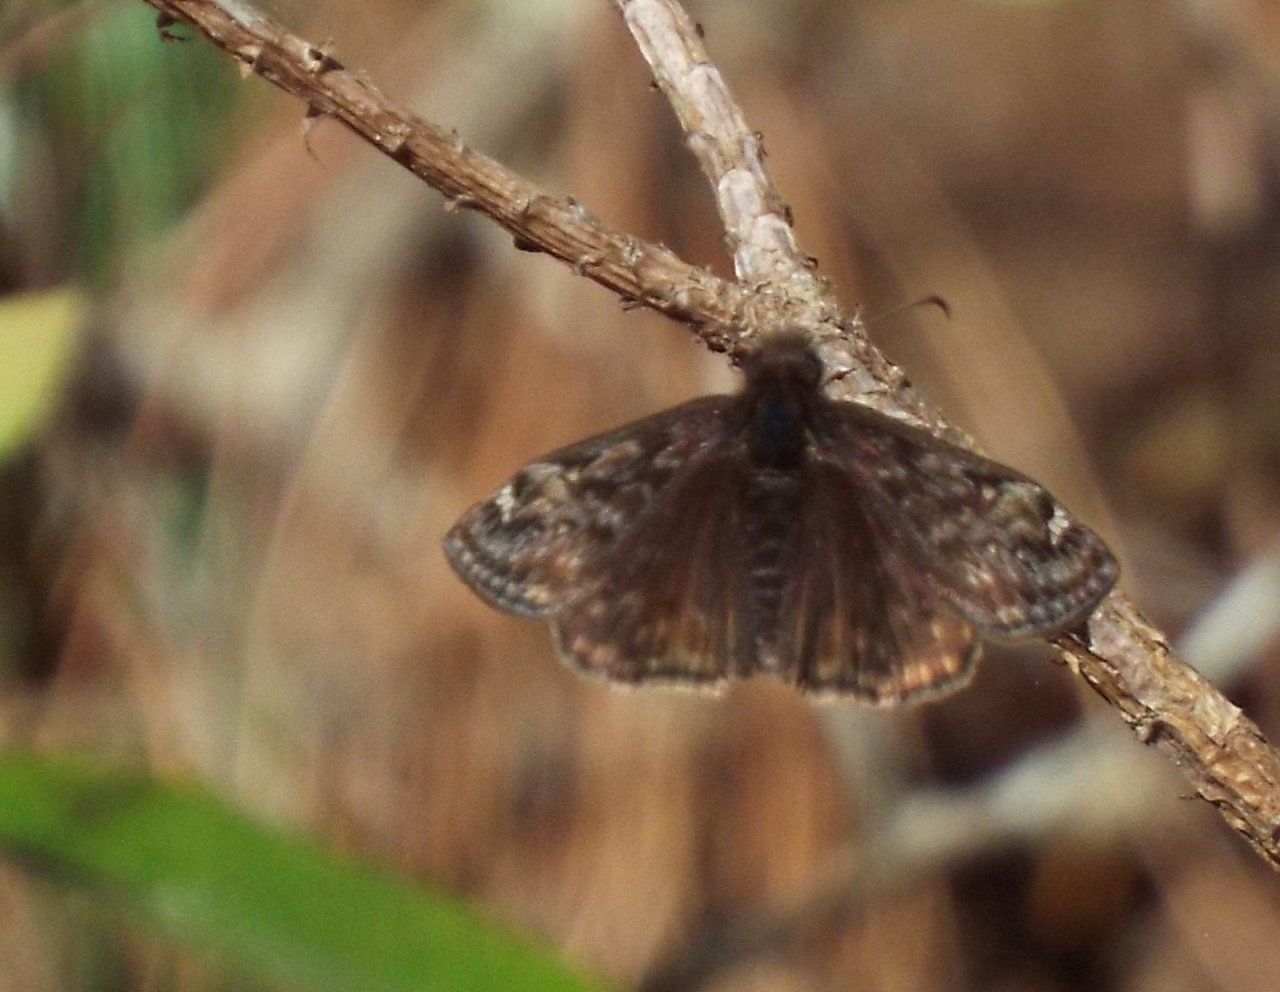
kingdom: Animalia
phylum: Arthropoda
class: Insecta
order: Lepidoptera
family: Hesperiidae
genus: Gesta
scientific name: Gesta
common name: Juvenal's Duskywing
